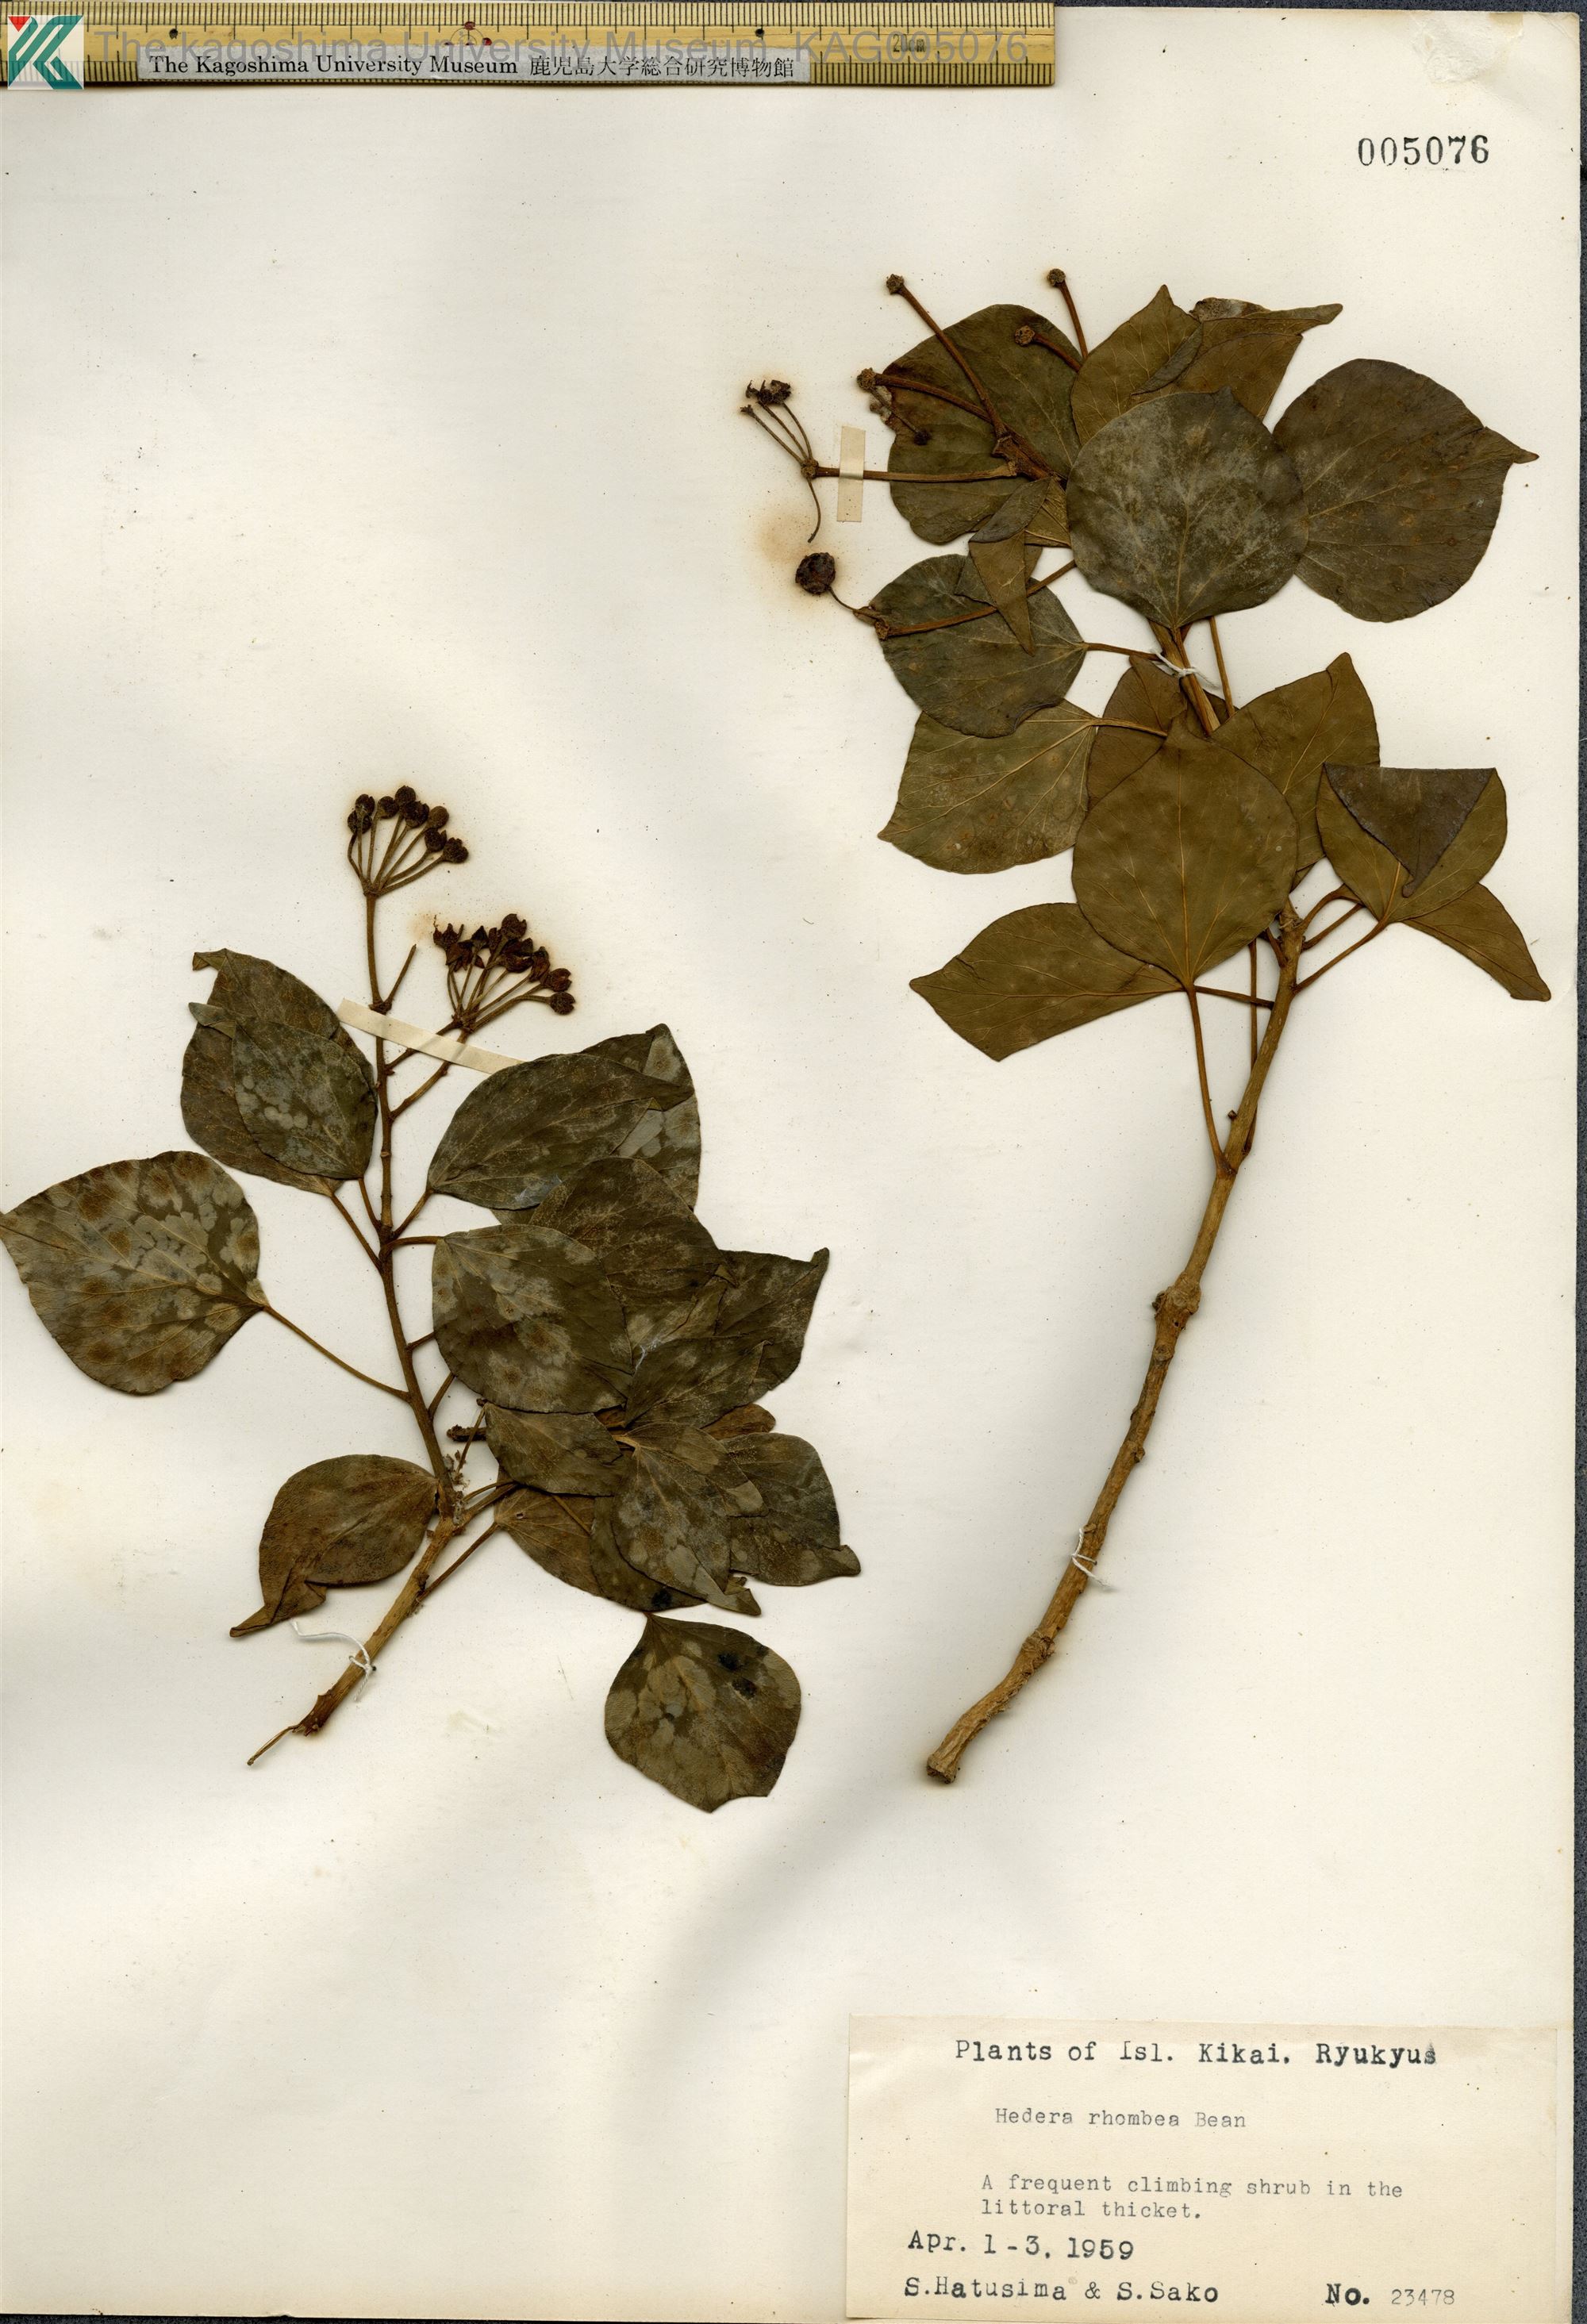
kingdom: Plantae
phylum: Tracheophyta
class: Magnoliopsida
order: Apiales
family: Araliaceae
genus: Hedera
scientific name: Hedera rhombea
